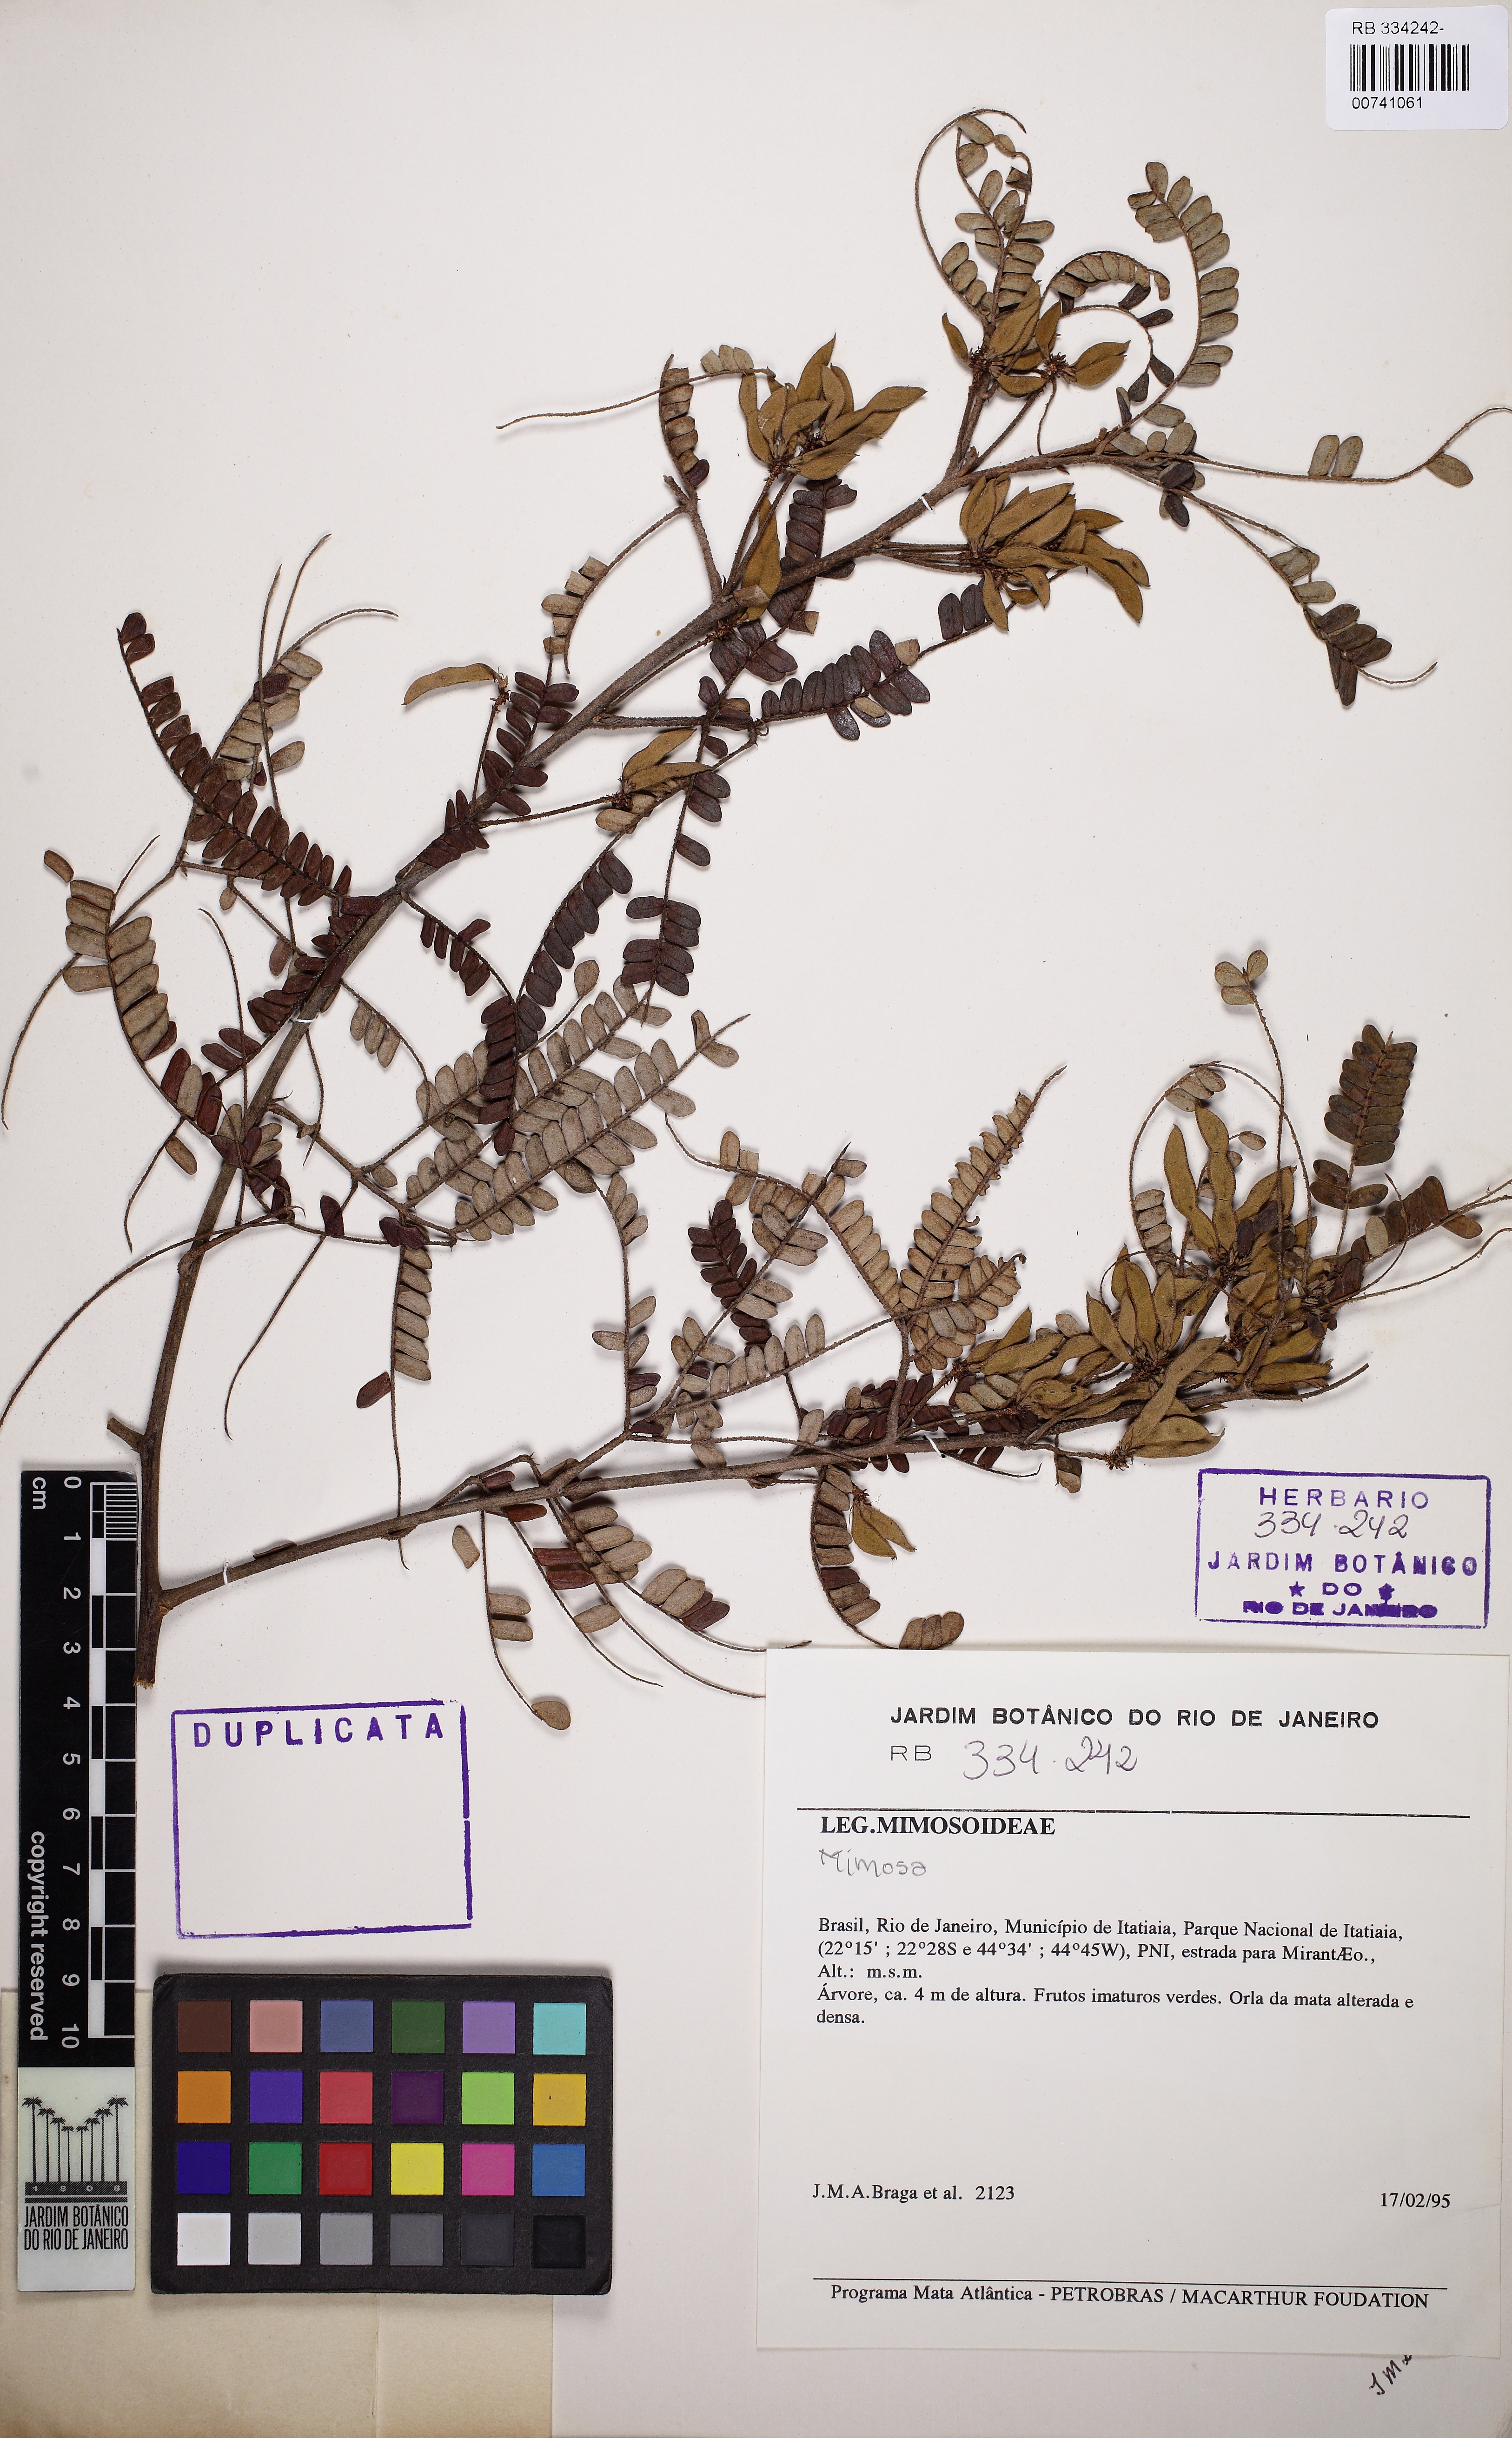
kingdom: Plantae
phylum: Tracheophyta
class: Magnoliopsida
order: Fabales
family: Fabaceae
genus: Mimosa
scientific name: Mimosa aurivillus
